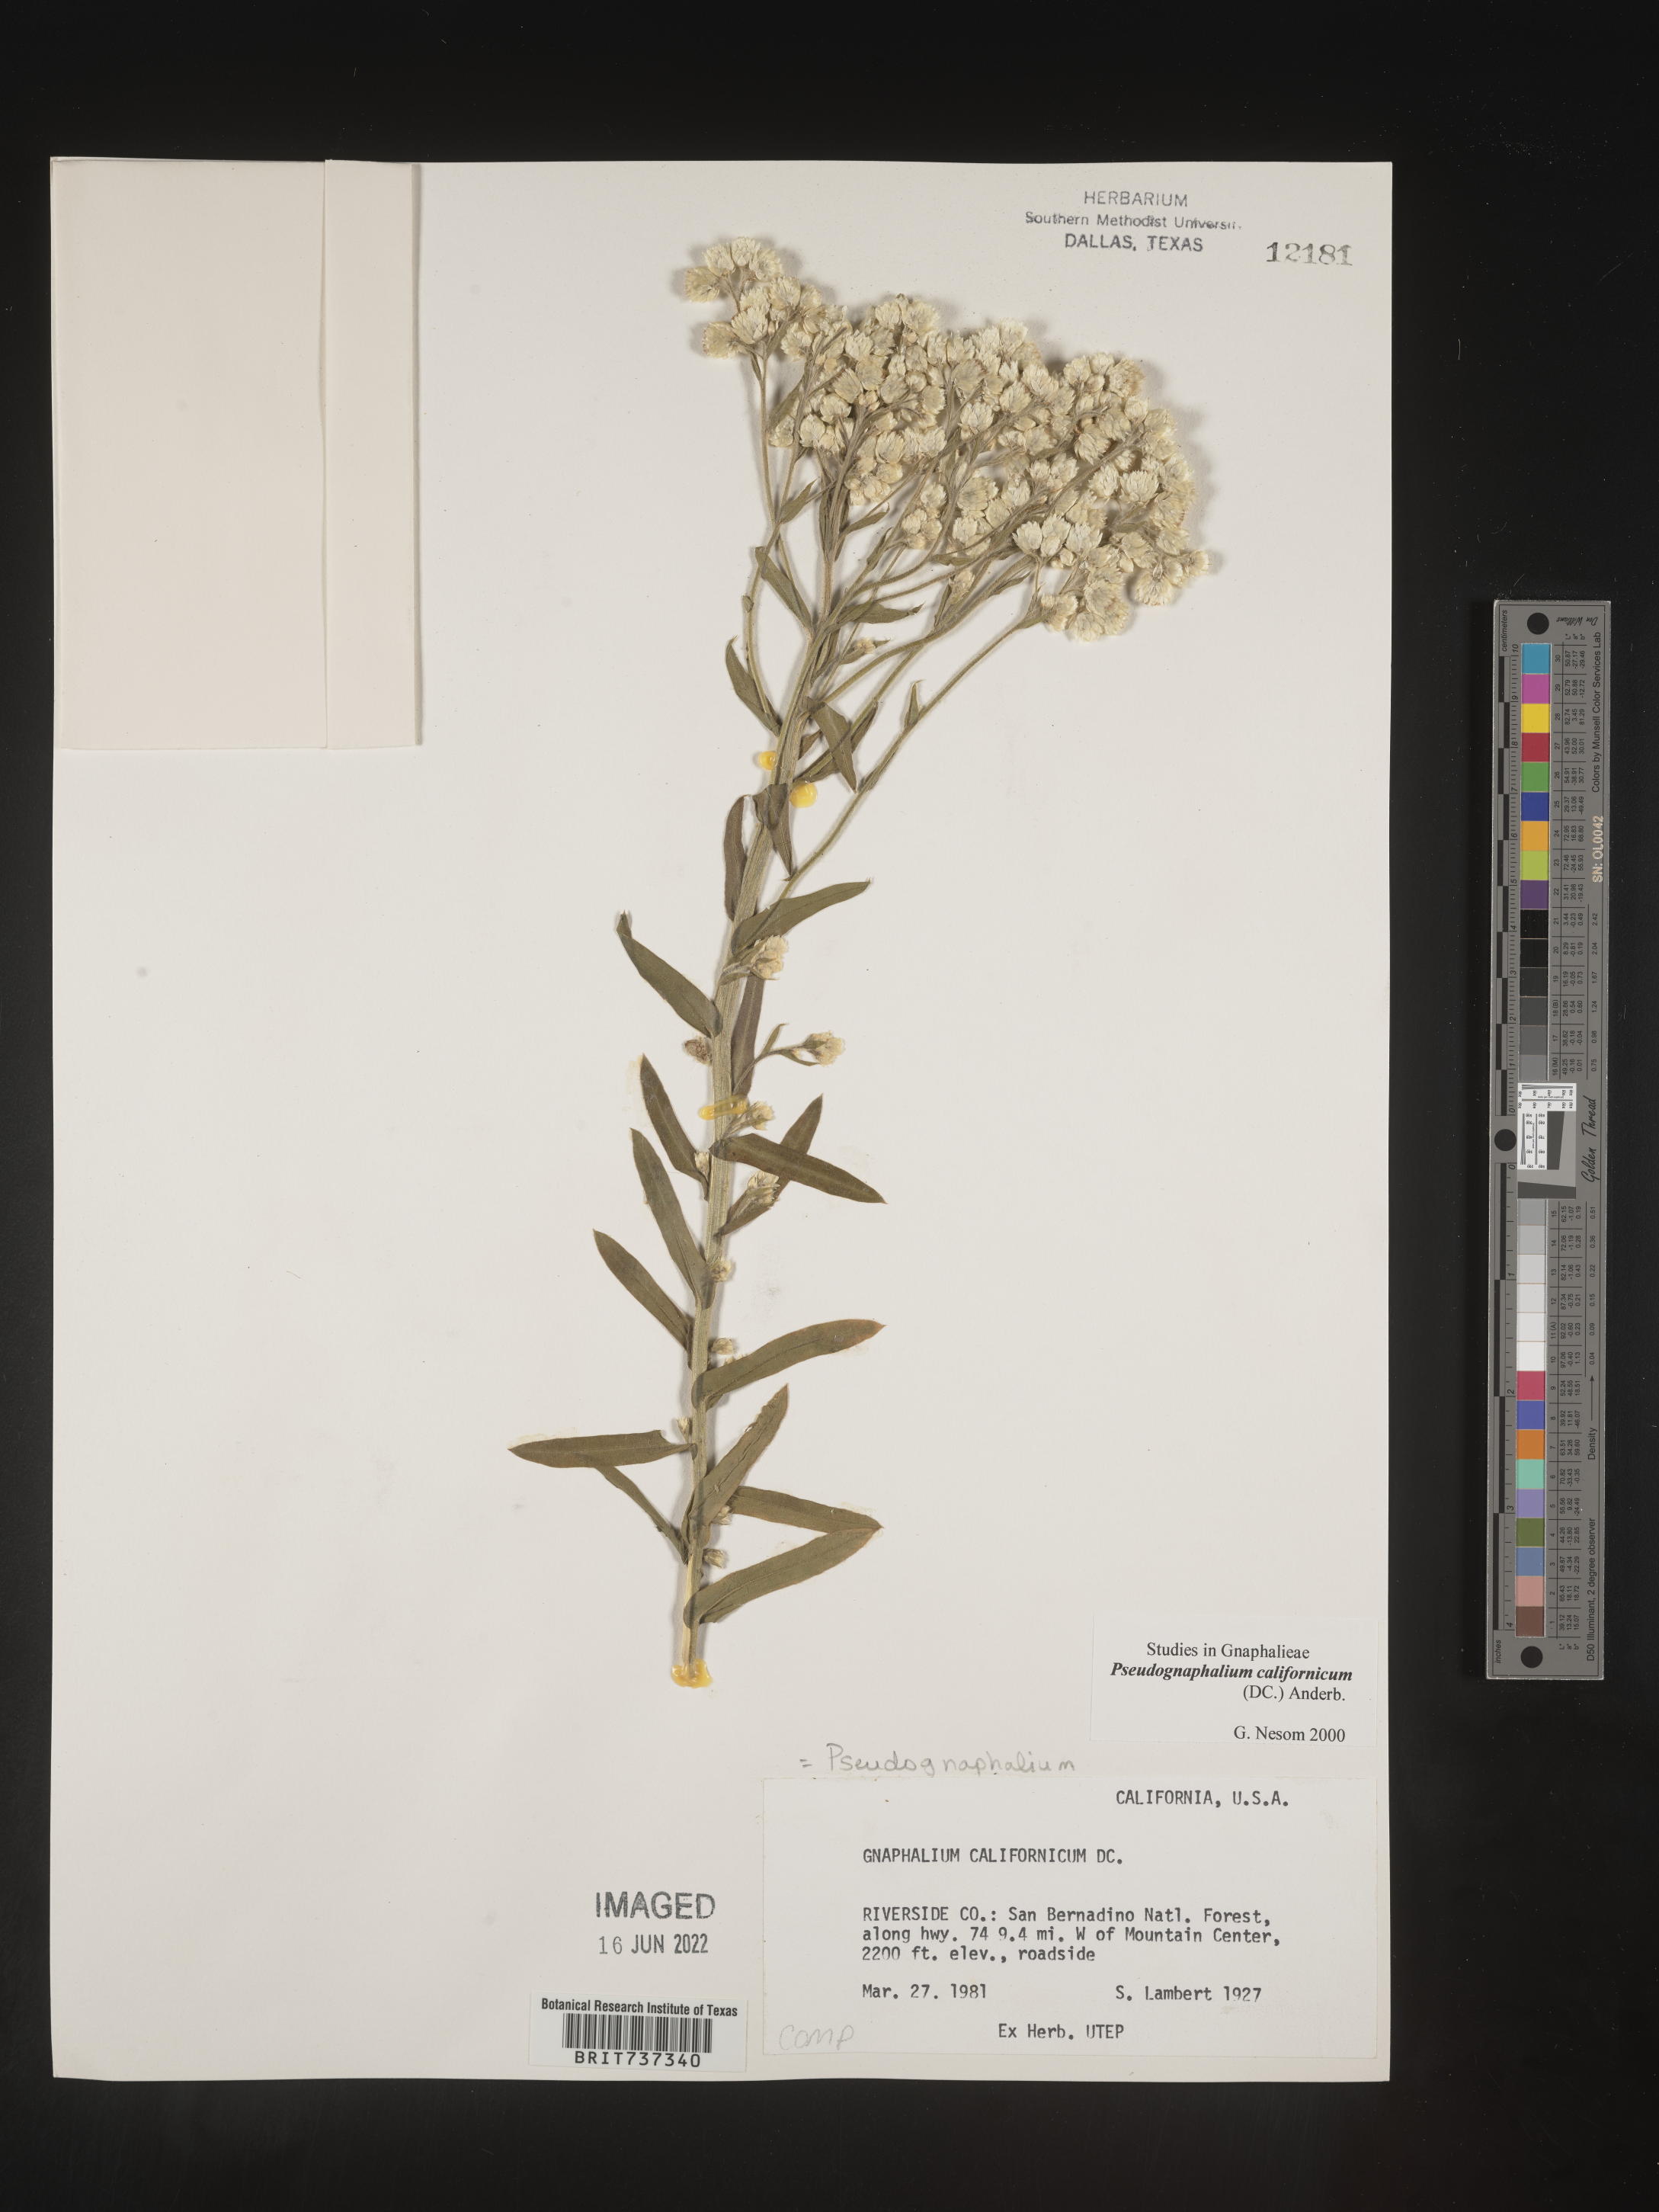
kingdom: Plantae
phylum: Tracheophyta
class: Magnoliopsida
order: Asterales
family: Asteraceae
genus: Pseudognaphalium
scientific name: Pseudognaphalium californicum
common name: California rabbit-tobacco
